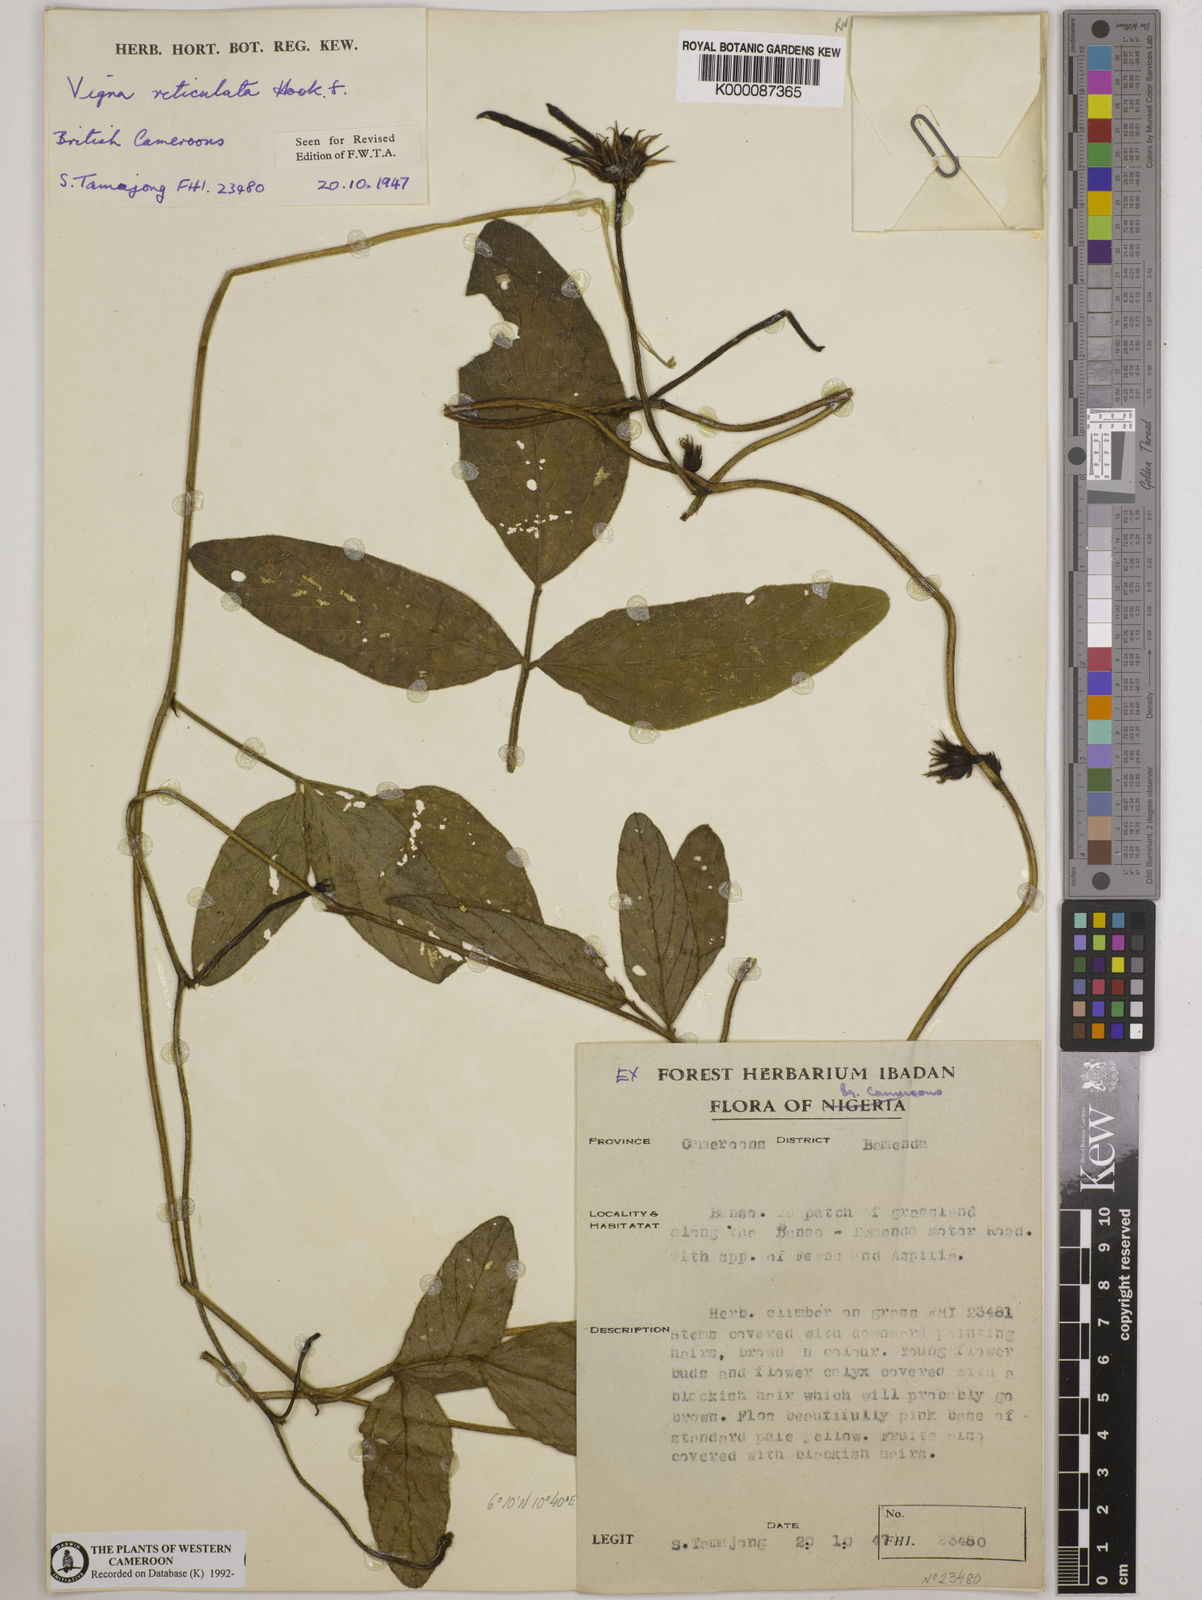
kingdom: Plantae
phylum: Tracheophyta
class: Magnoliopsida
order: Fabales
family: Fabaceae
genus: Vigna
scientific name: Vigna reticulata
